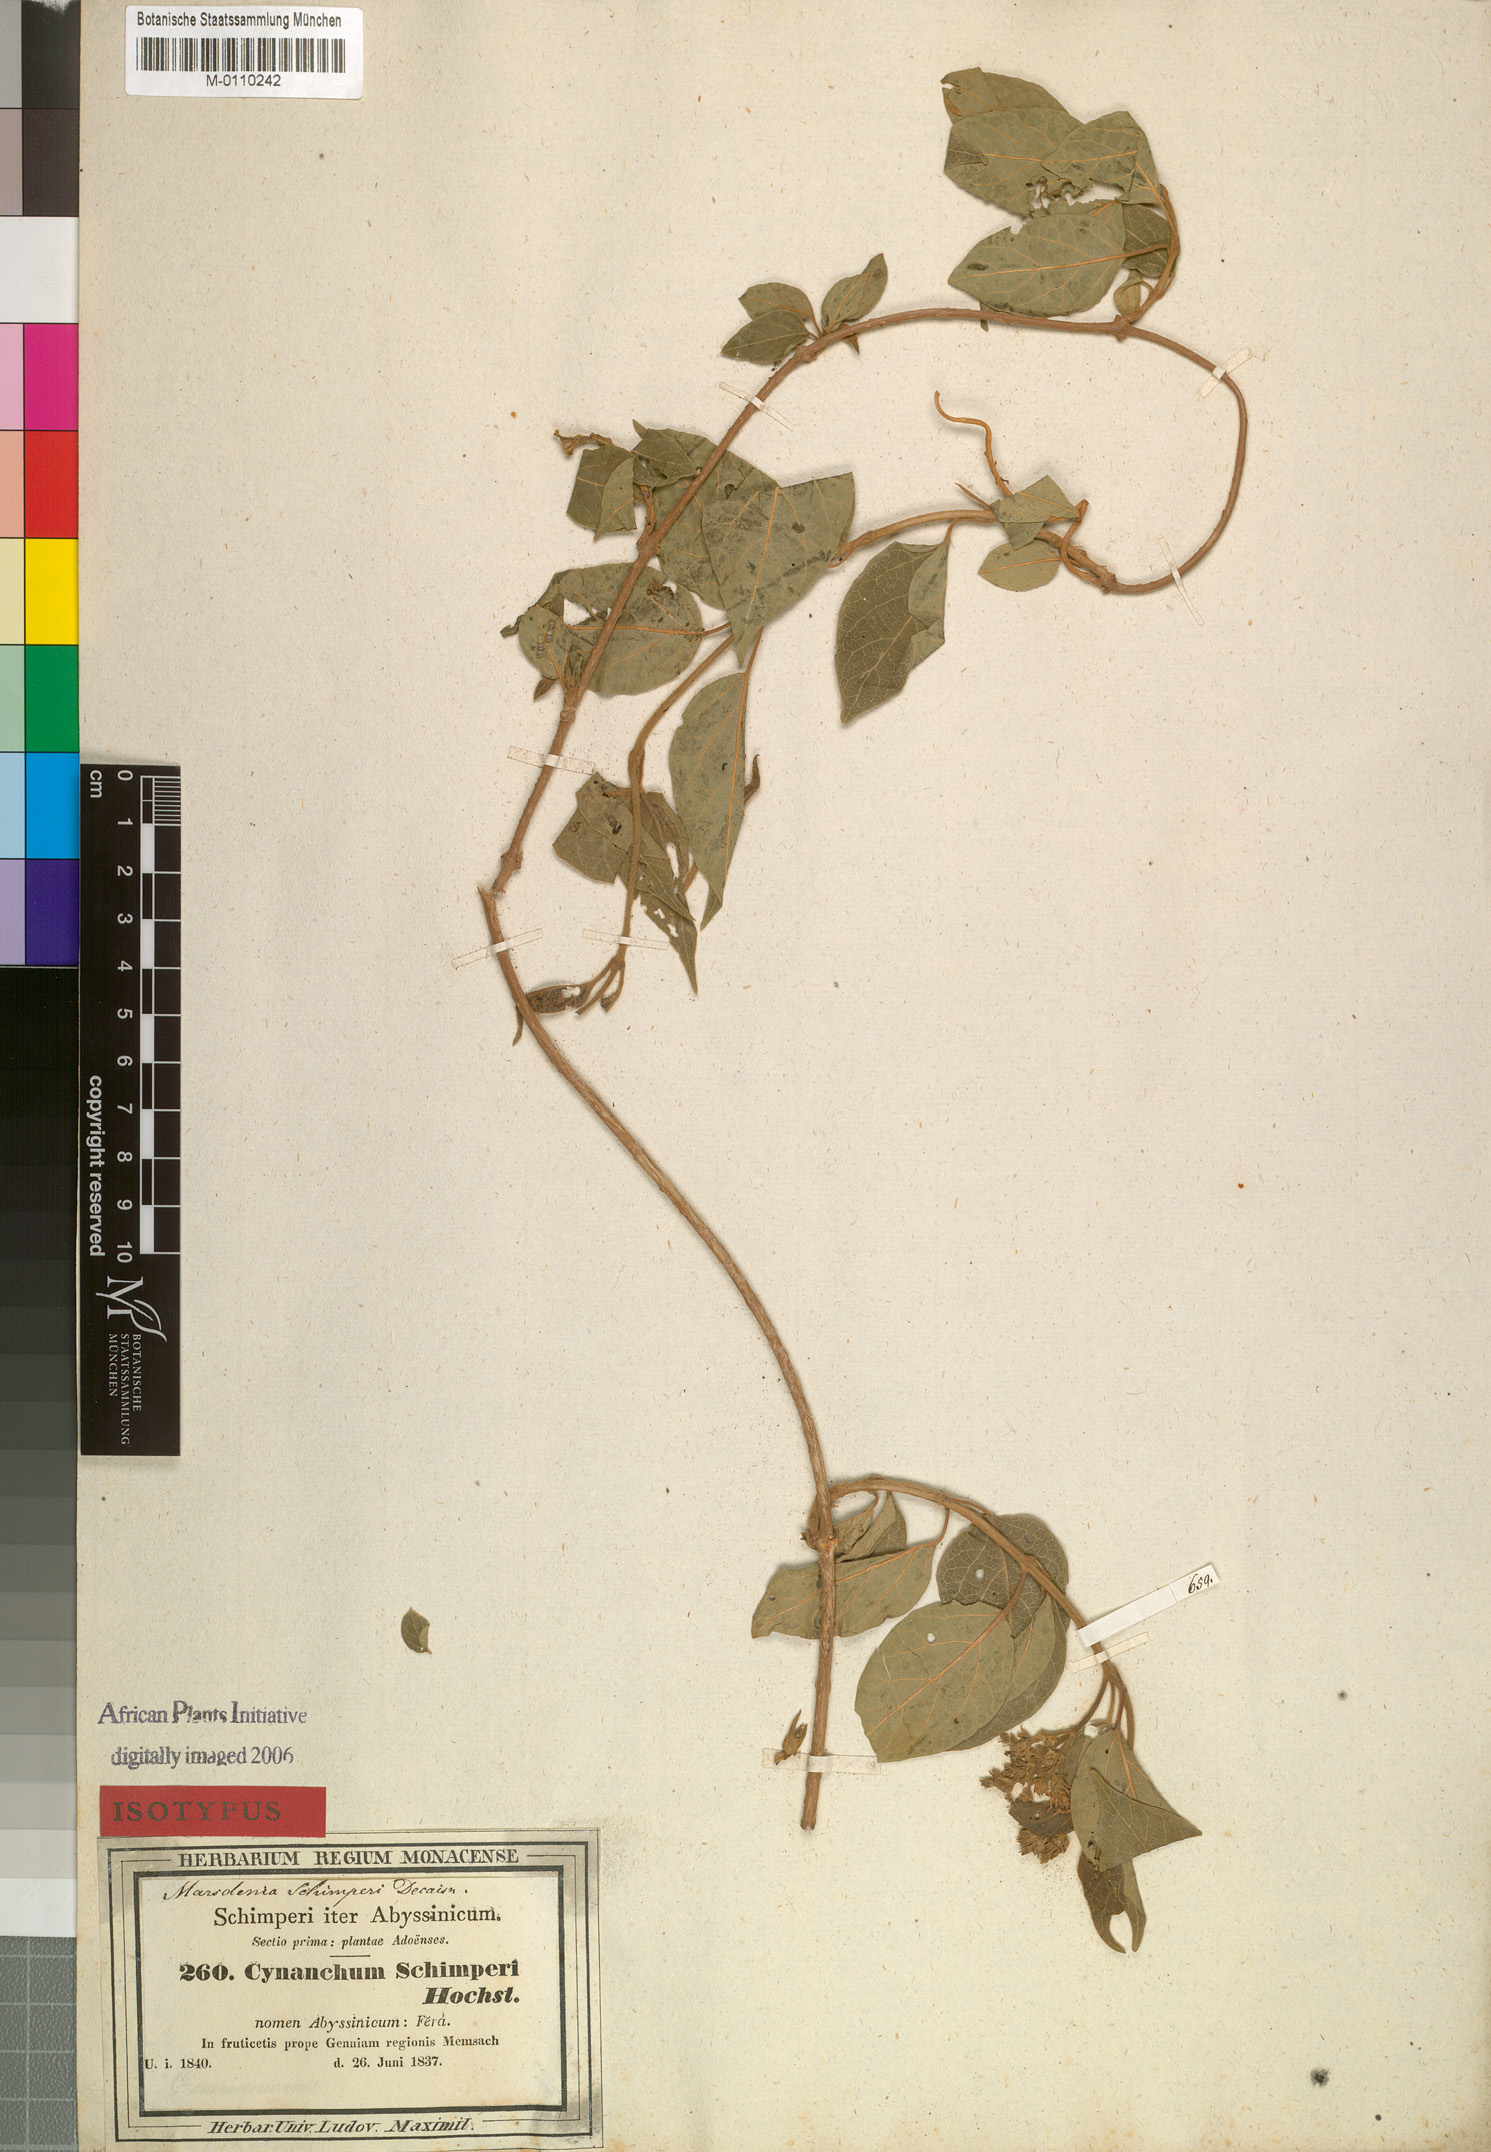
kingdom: Plantae
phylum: Tracheophyta
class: Magnoliopsida
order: Gentianales
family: Apocynaceae
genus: Stephanotis
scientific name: Stephanotis schimperi
